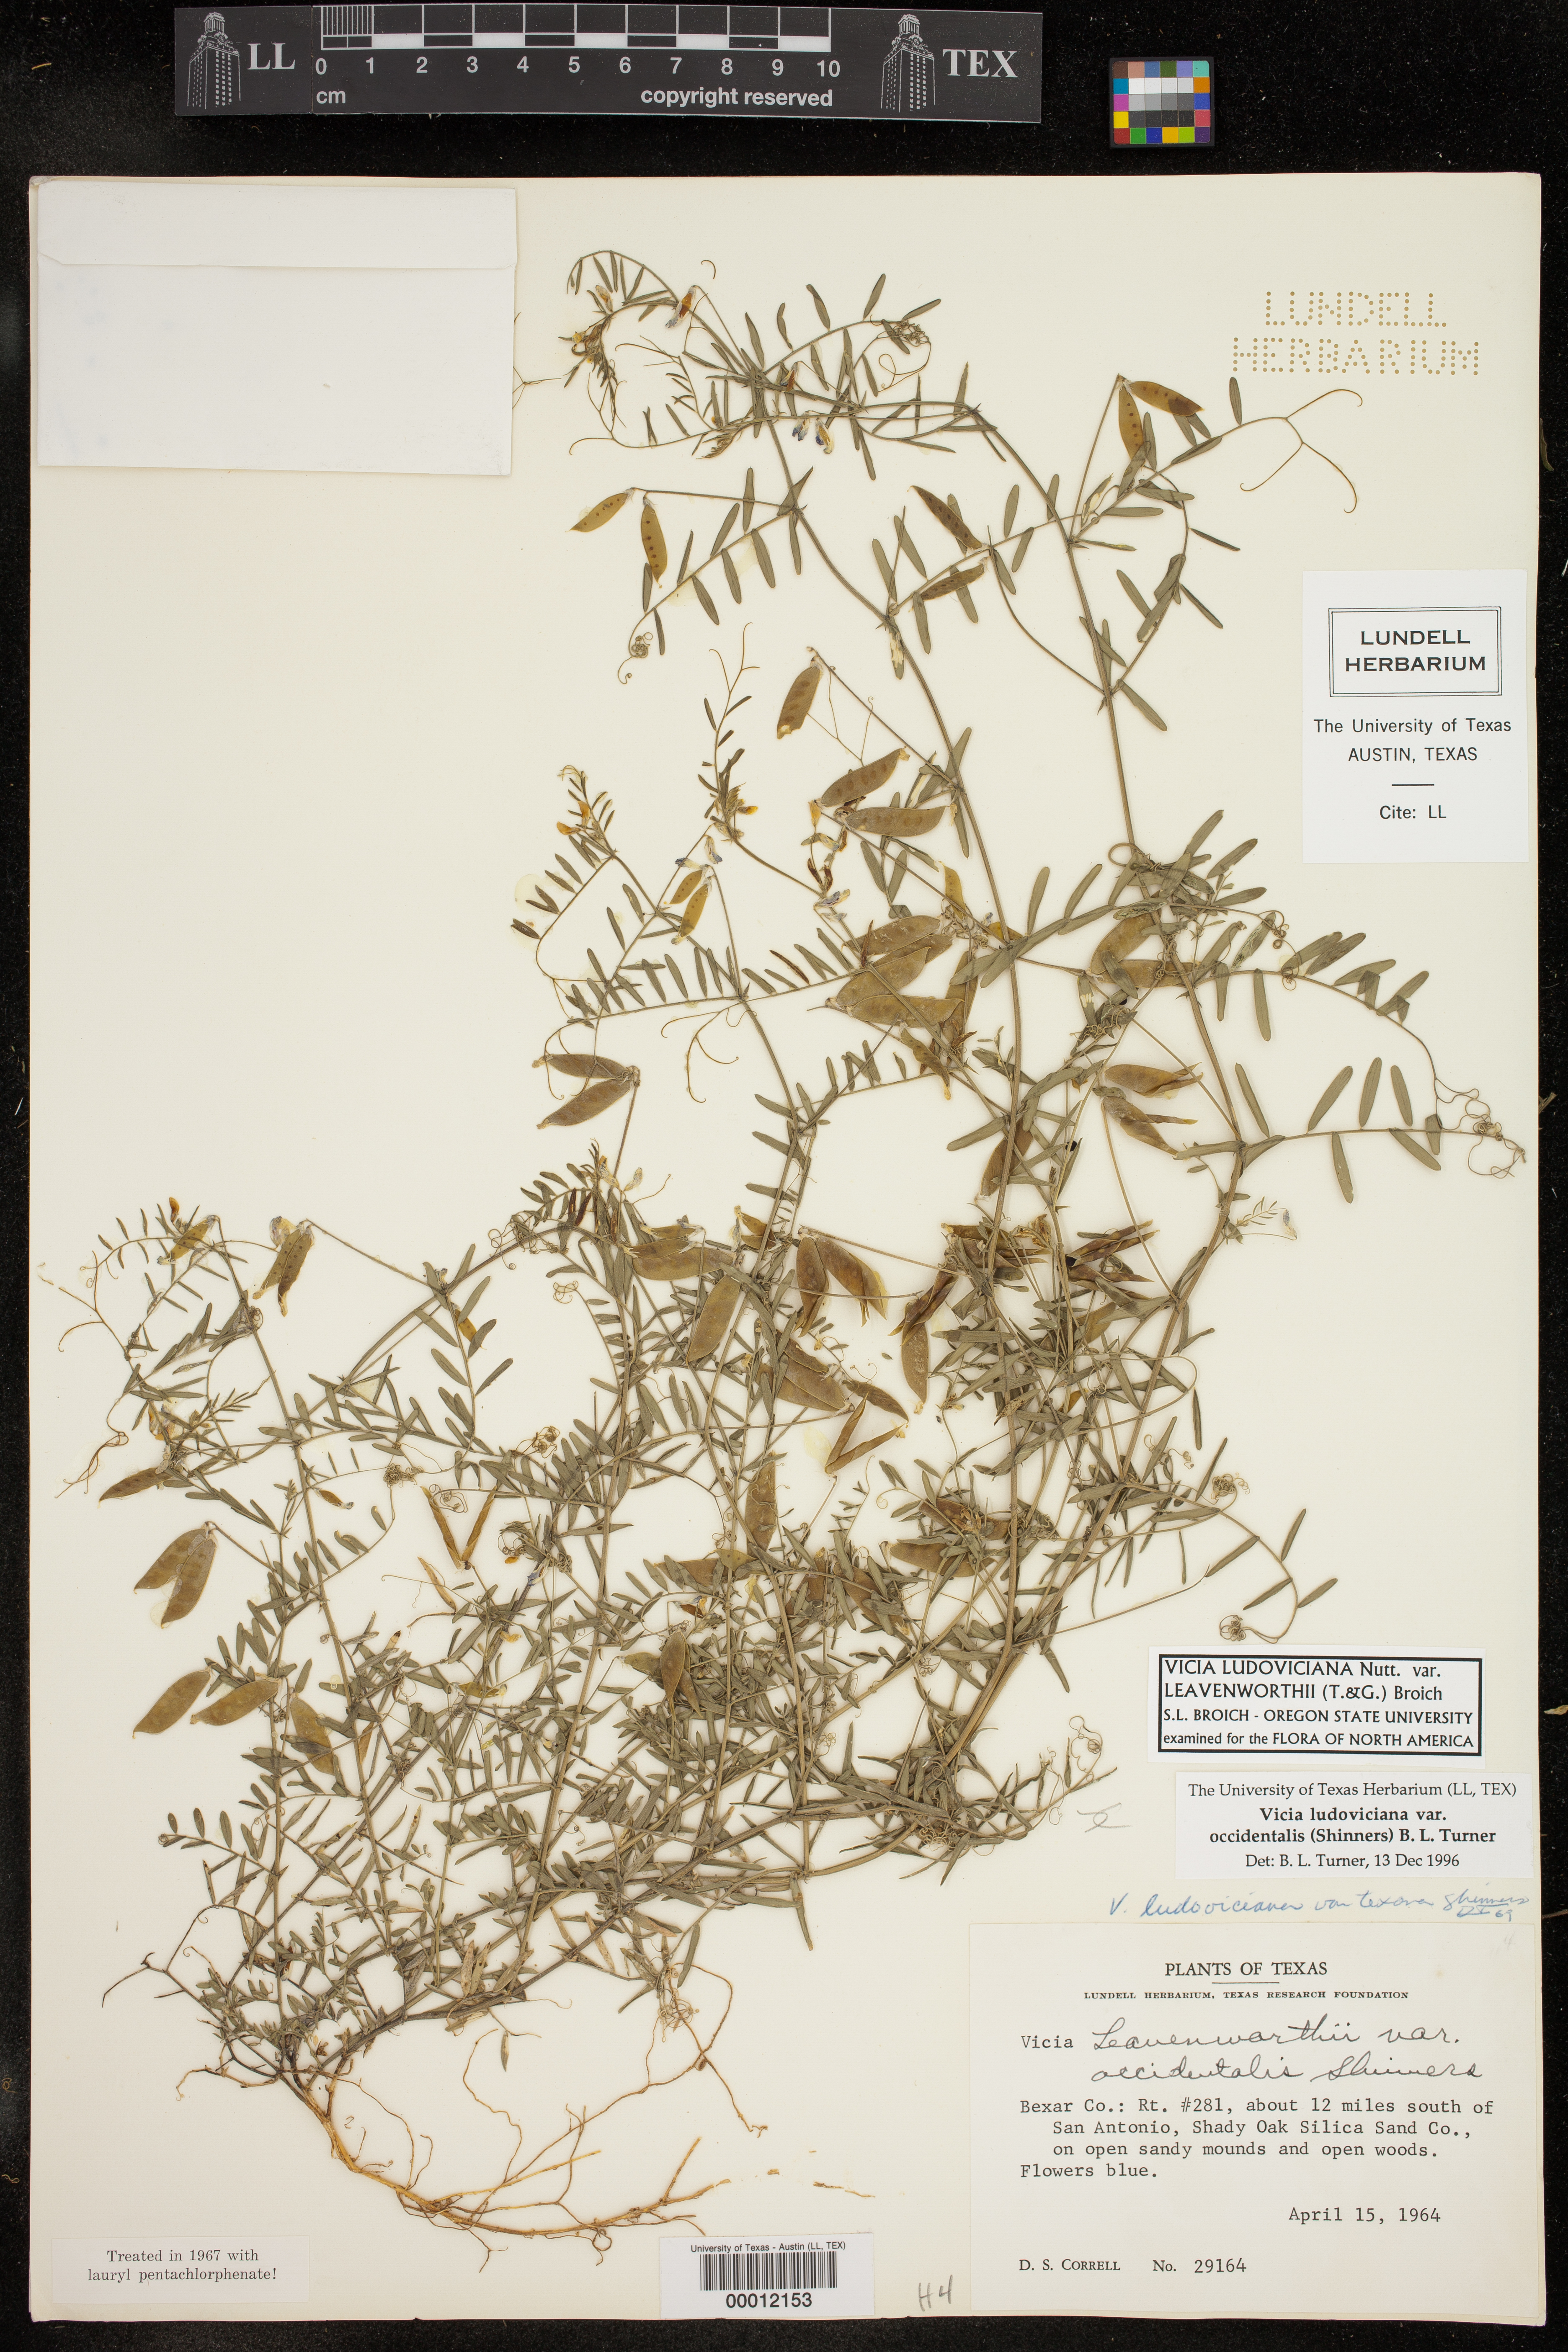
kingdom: Plantae
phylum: Tracheophyta
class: Magnoliopsida
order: Fabales
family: Fabaceae
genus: Vicia
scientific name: Vicia ludoviciana
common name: Louisiana vetch
